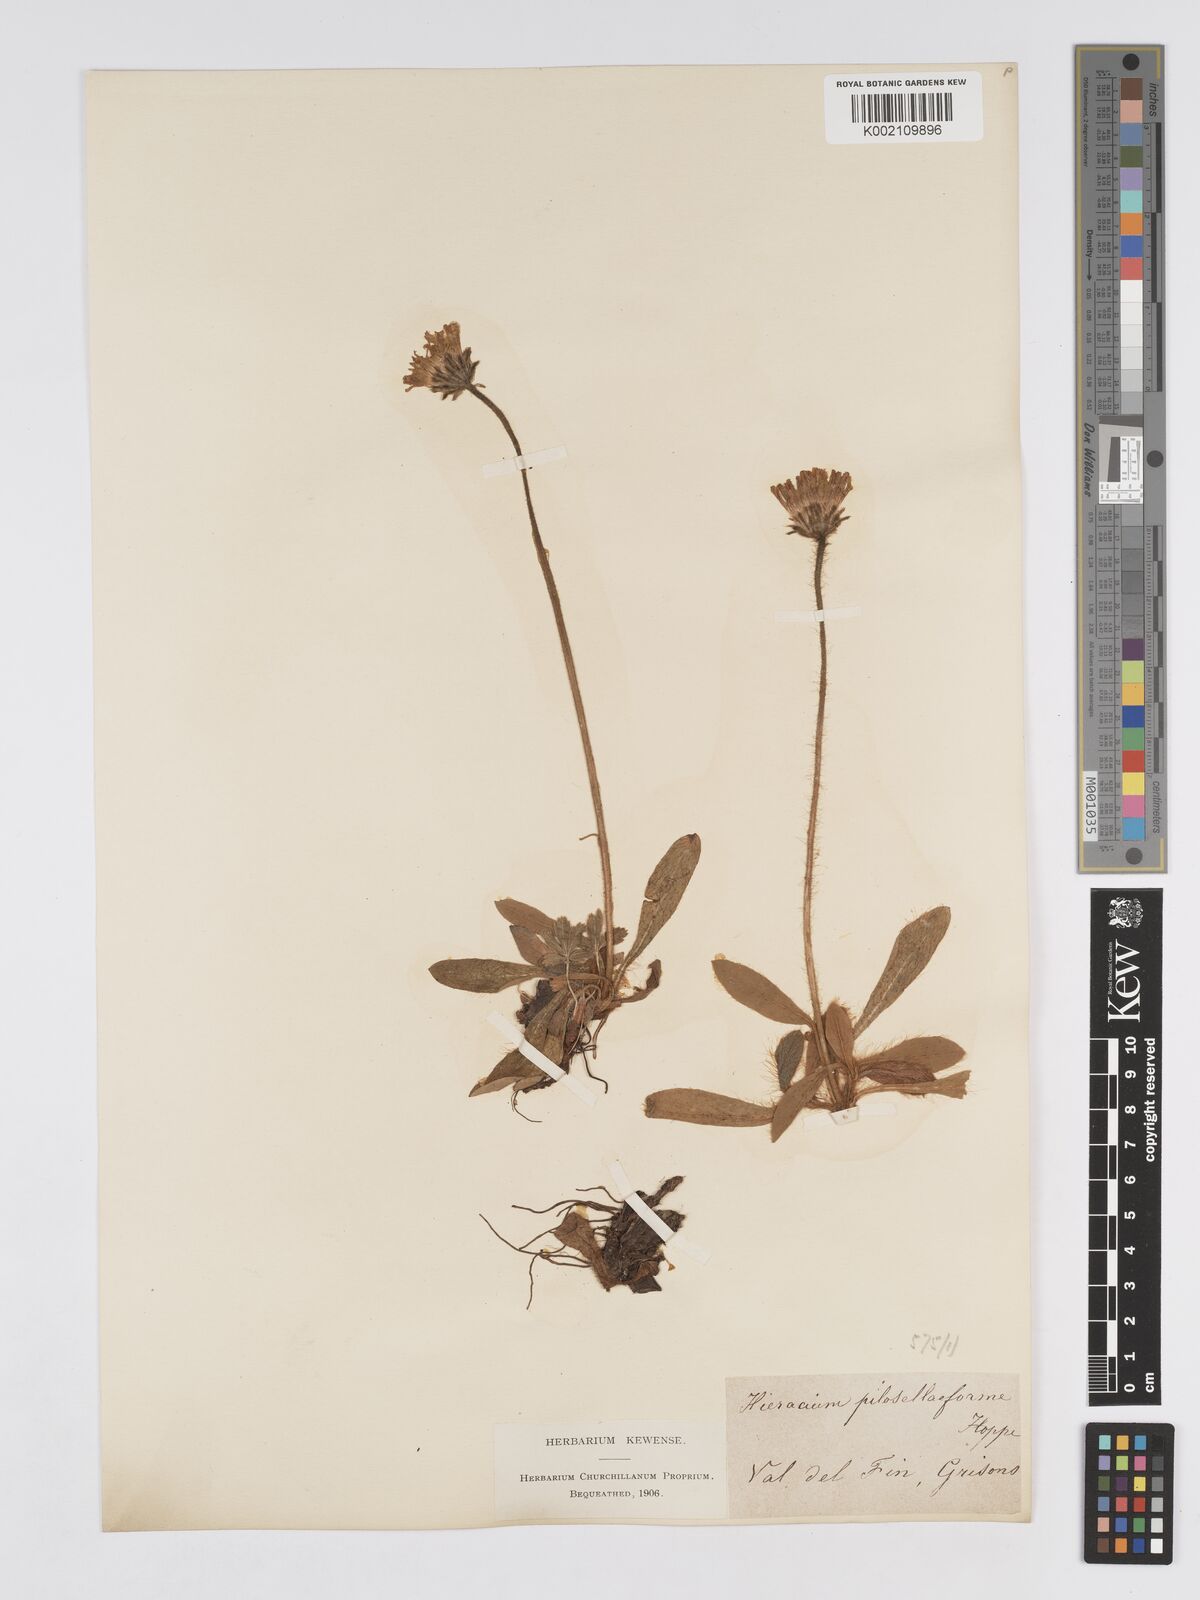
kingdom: Plantae
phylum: Tracheophyta
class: Magnoliopsida
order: Asterales
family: Asteraceae
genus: Pilosella
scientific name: Pilosella hoppeana
